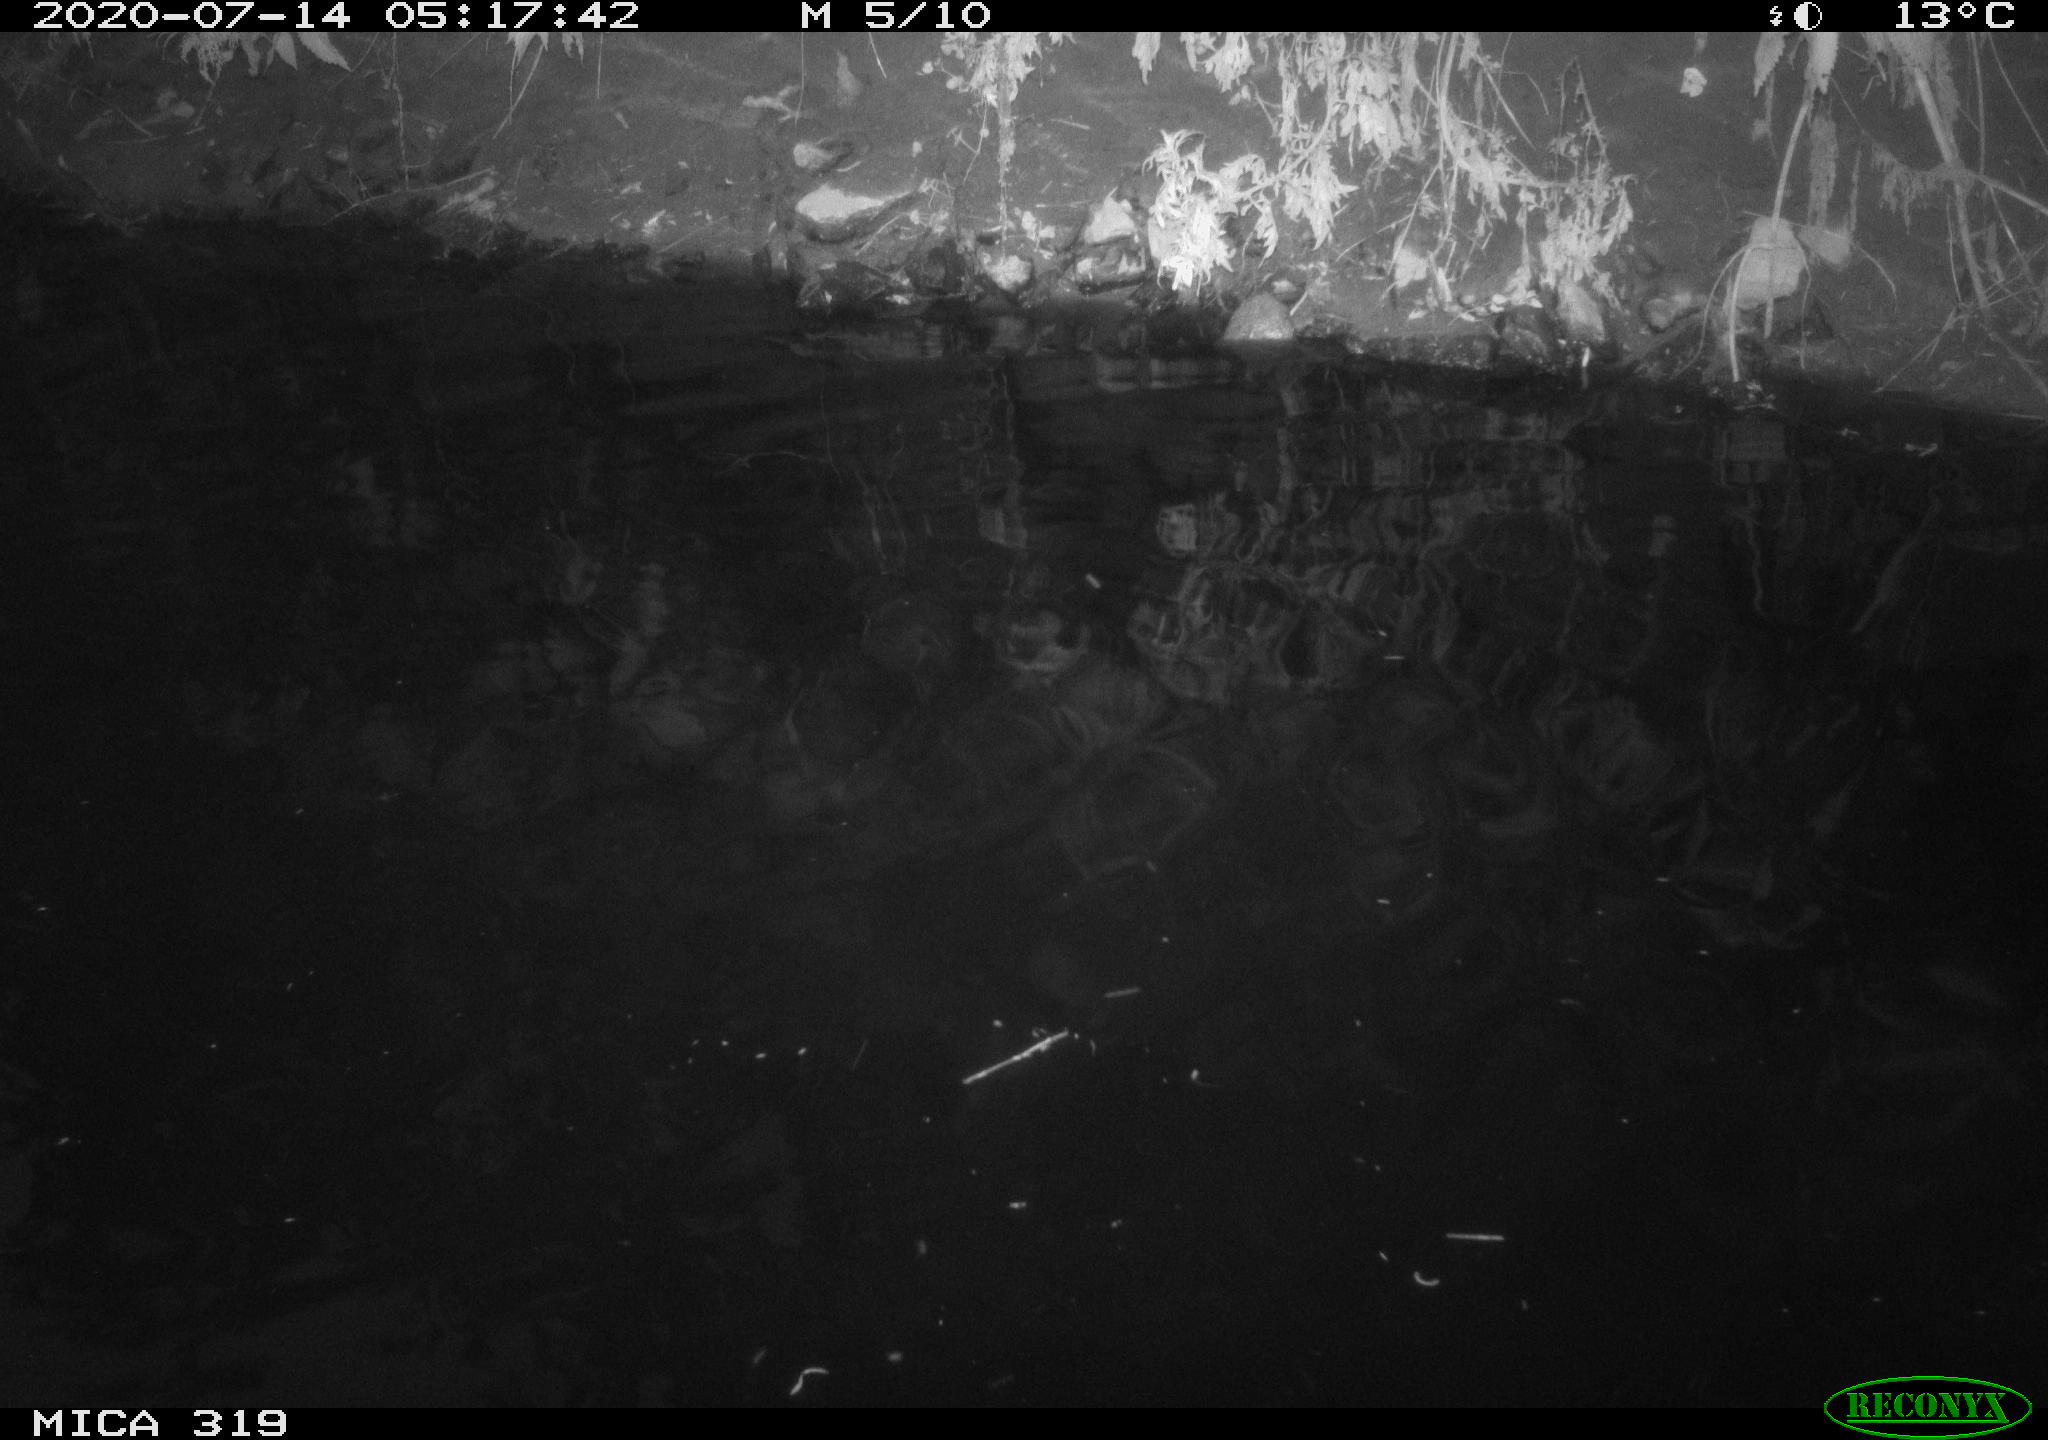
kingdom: Animalia
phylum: Chordata
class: Aves
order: Anseriformes
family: Anatidae
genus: Anas
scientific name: Anas platyrhynchos
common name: Mallard
